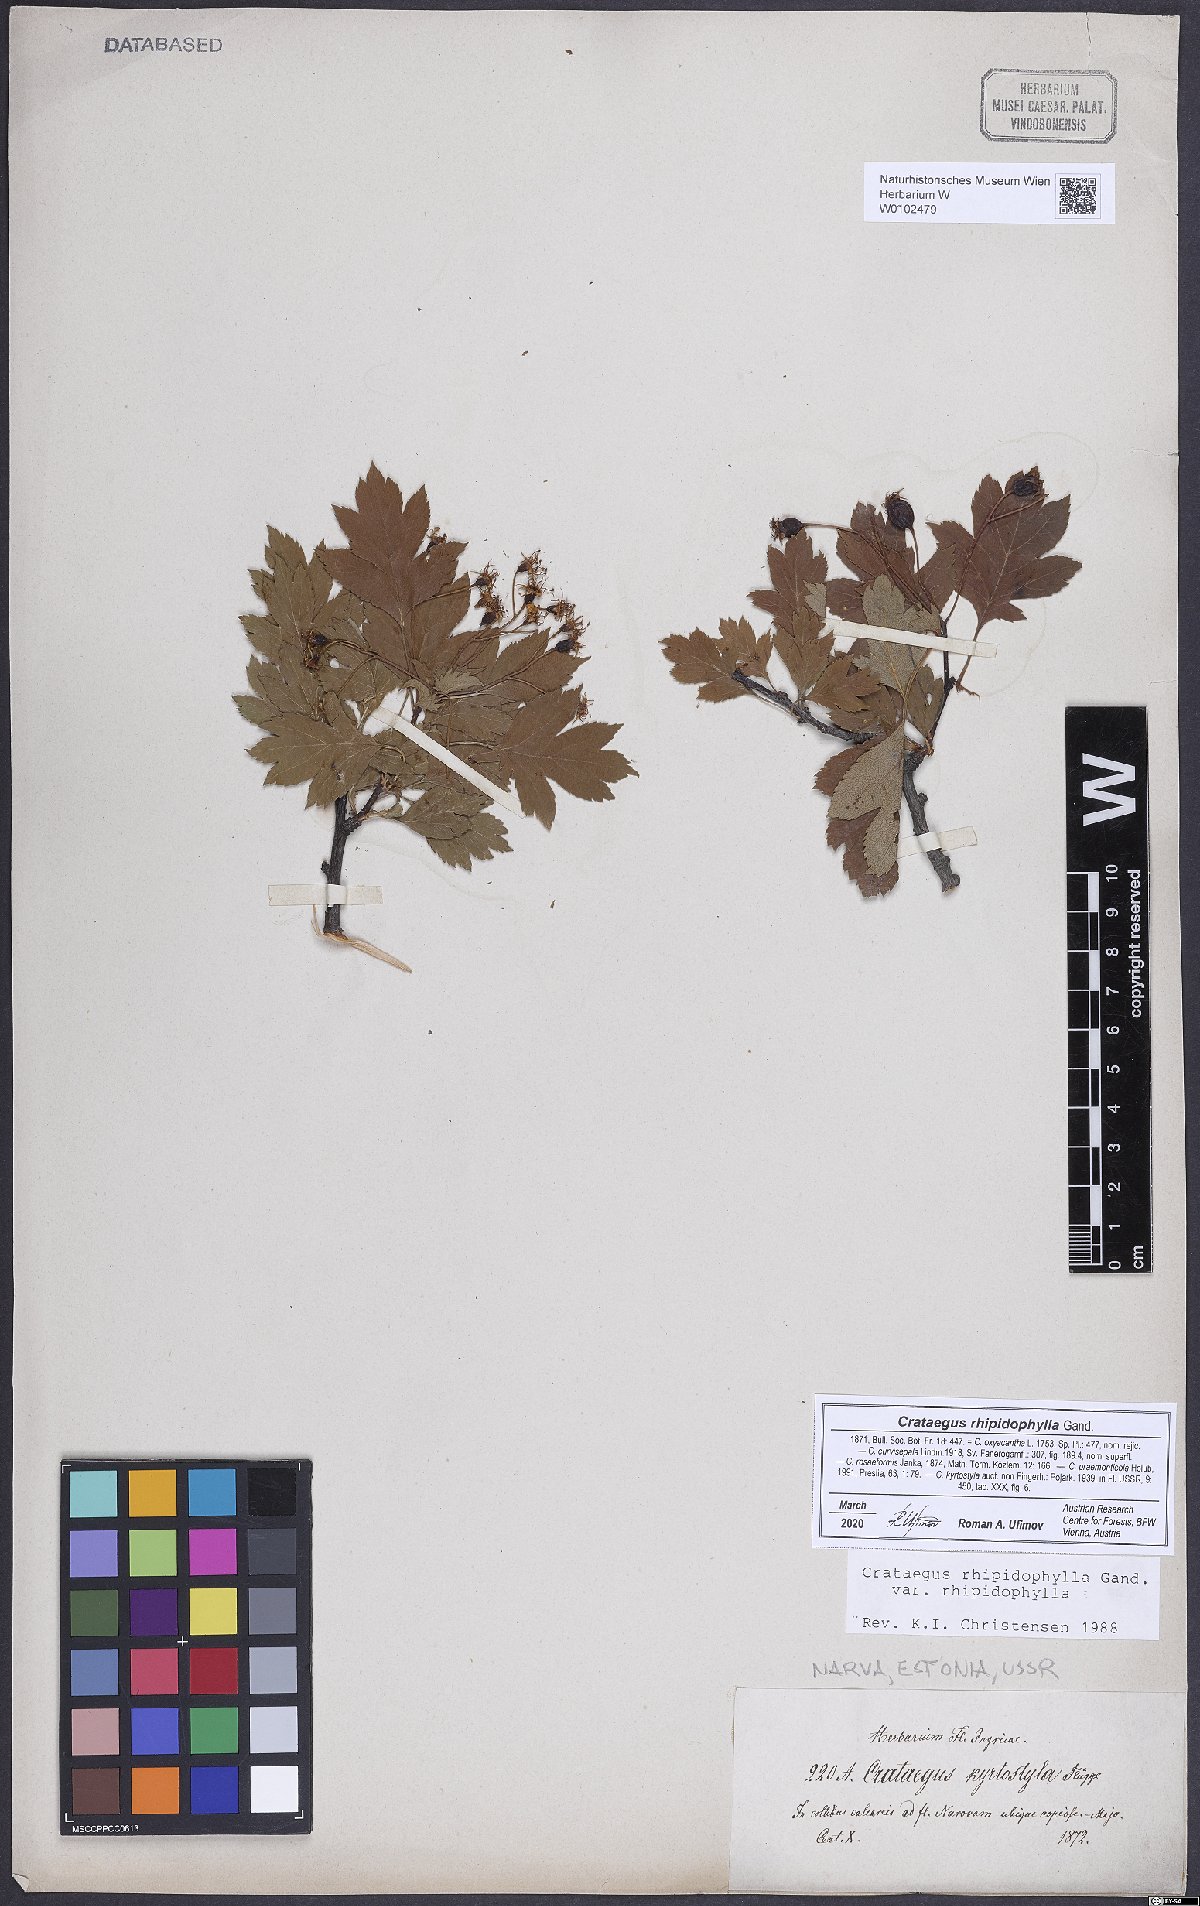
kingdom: Plantae
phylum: Tracheophyta
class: Magnoliopsida
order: Rosales
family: Rosaceae
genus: Crataegus
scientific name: Crataegus rhipidophylla
